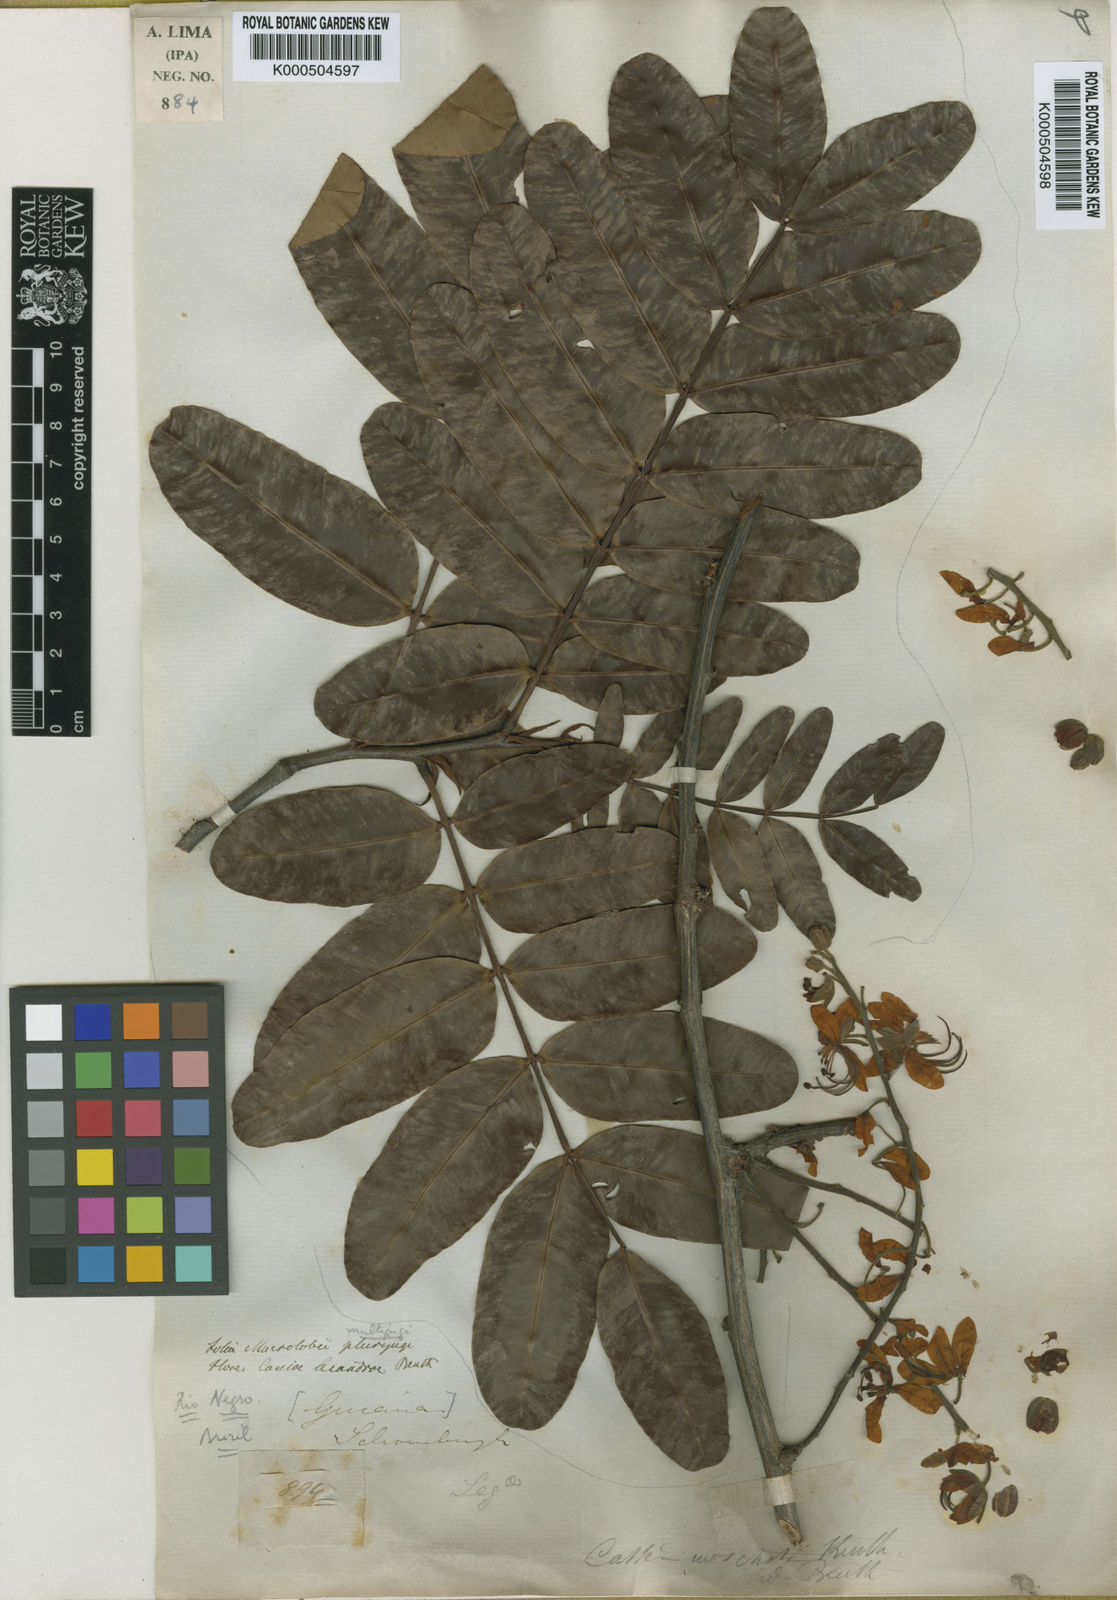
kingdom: Plantae
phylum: Tracheophyta
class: Magnoliopsida
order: Fabales
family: Fabaceae
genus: Cassia
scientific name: Cassia fistula
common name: Golden shower
